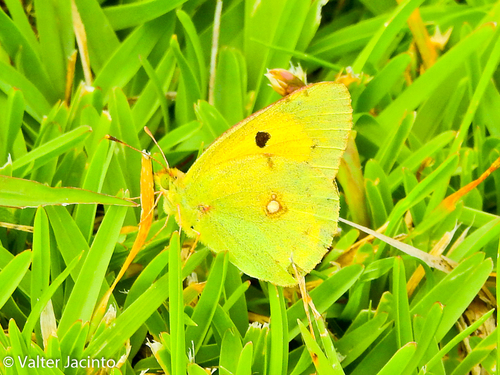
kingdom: Animalia
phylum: Arthropoda
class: Insecta
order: Lepidoptera
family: Pieridae
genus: Colias
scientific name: Colias croceus
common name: Clouded yellow
